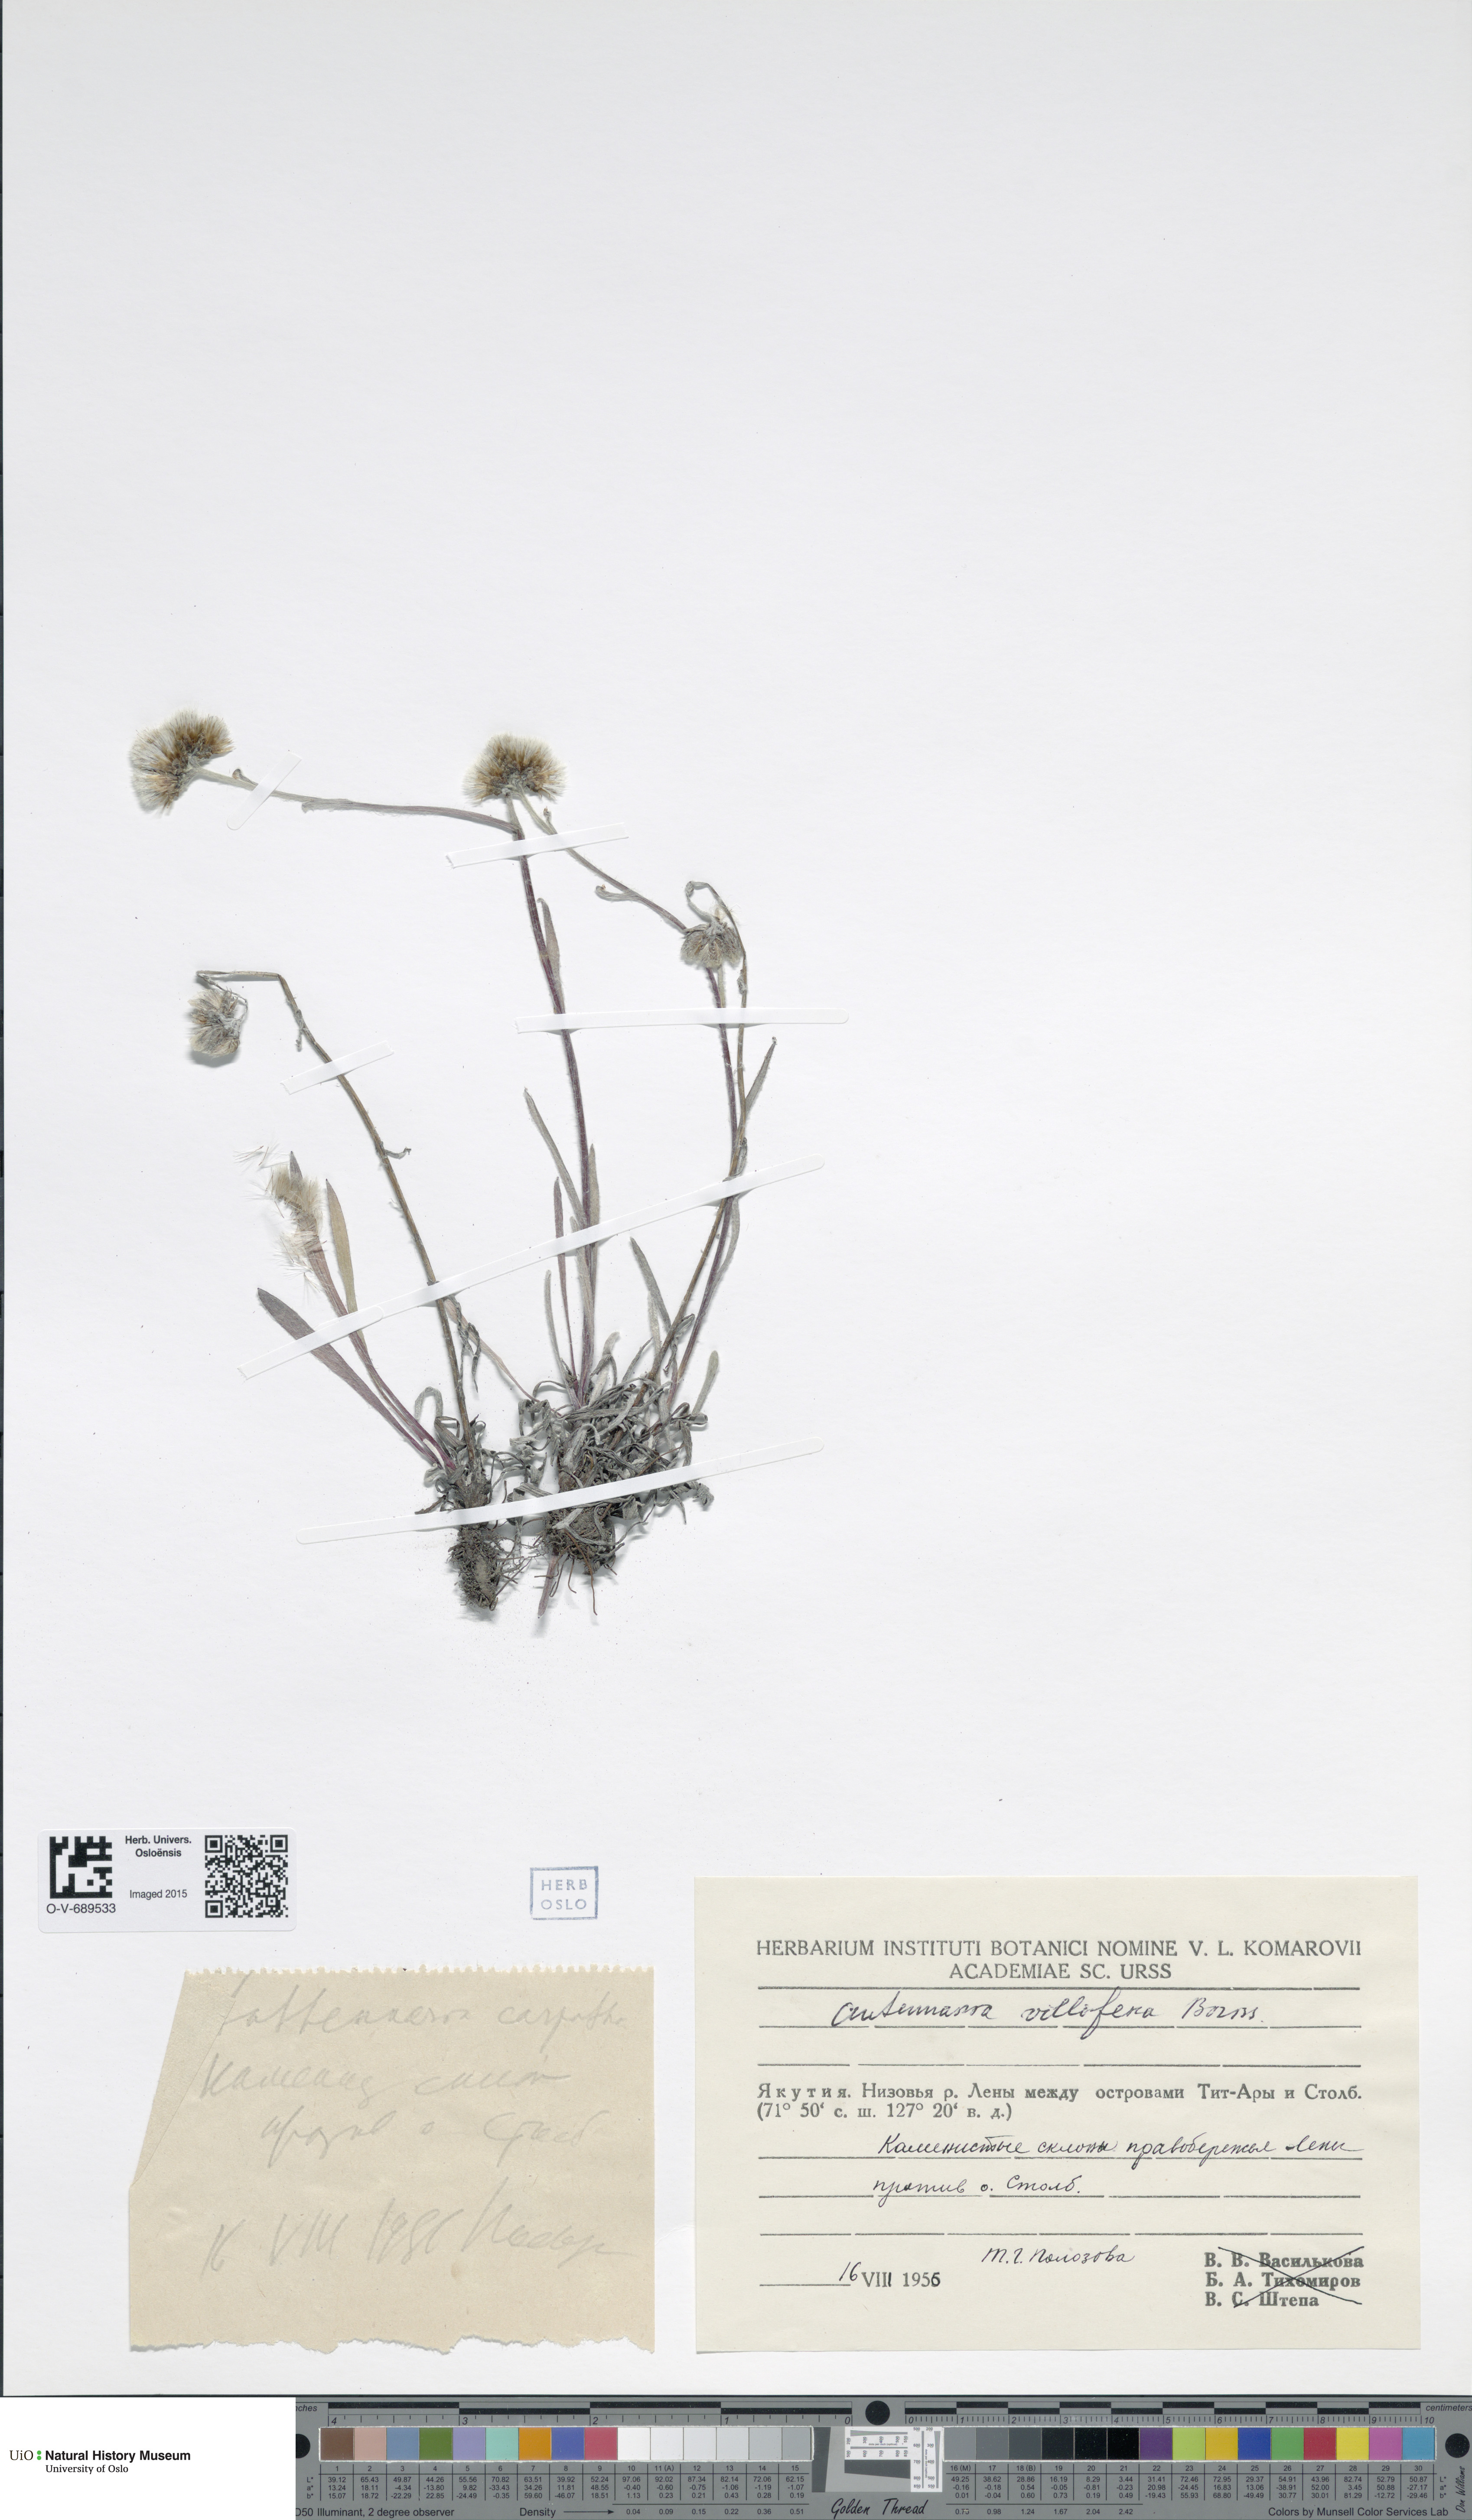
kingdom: Plantae
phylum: Tracheophyta
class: Magnoliopsida
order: Asterales
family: Asteraceae
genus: Antennaria
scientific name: Antennaria lanata
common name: Woolly pussytoes
